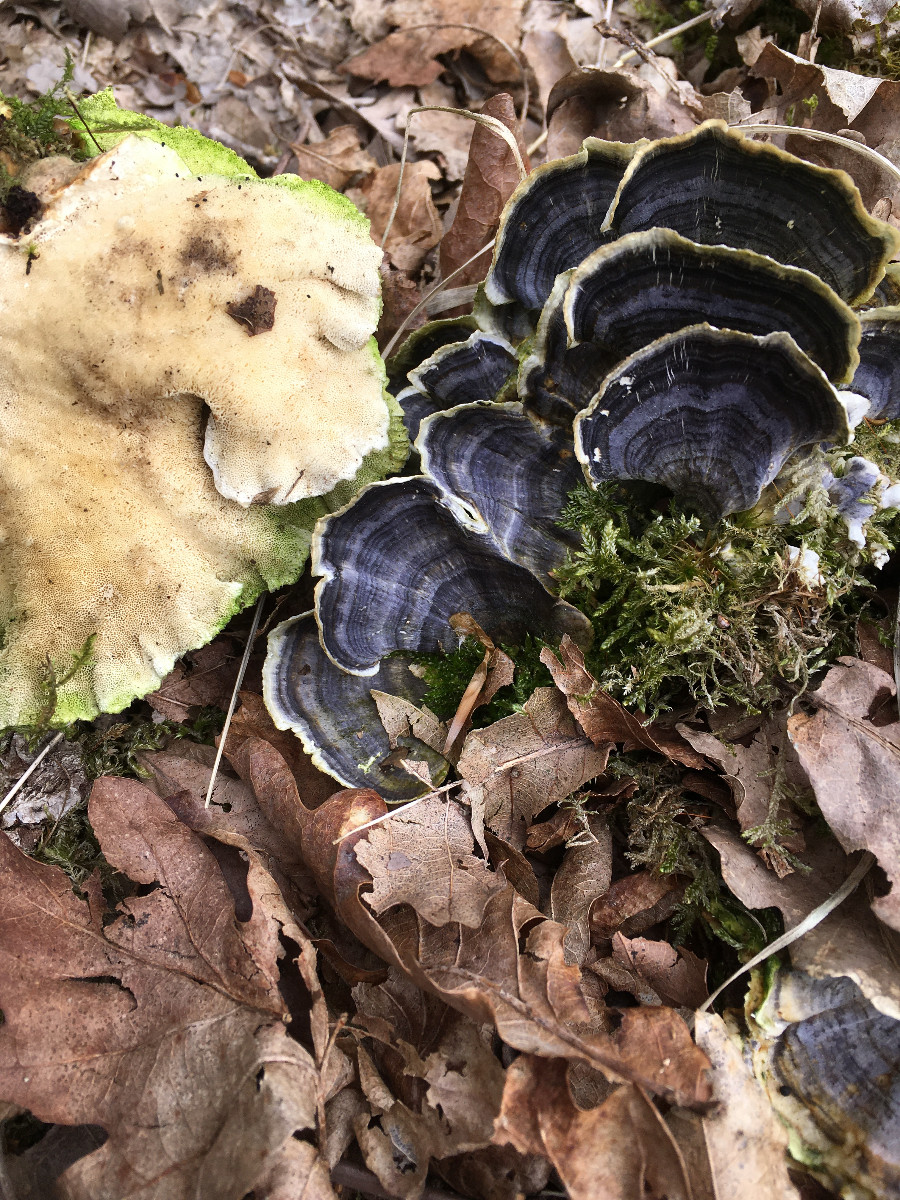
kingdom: Fungi
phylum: Basidiomycota
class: Agaricomycetes
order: Polyporales
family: Polyporaceae
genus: Trametes
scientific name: Trametes versicolor
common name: broget læderporesvamp
